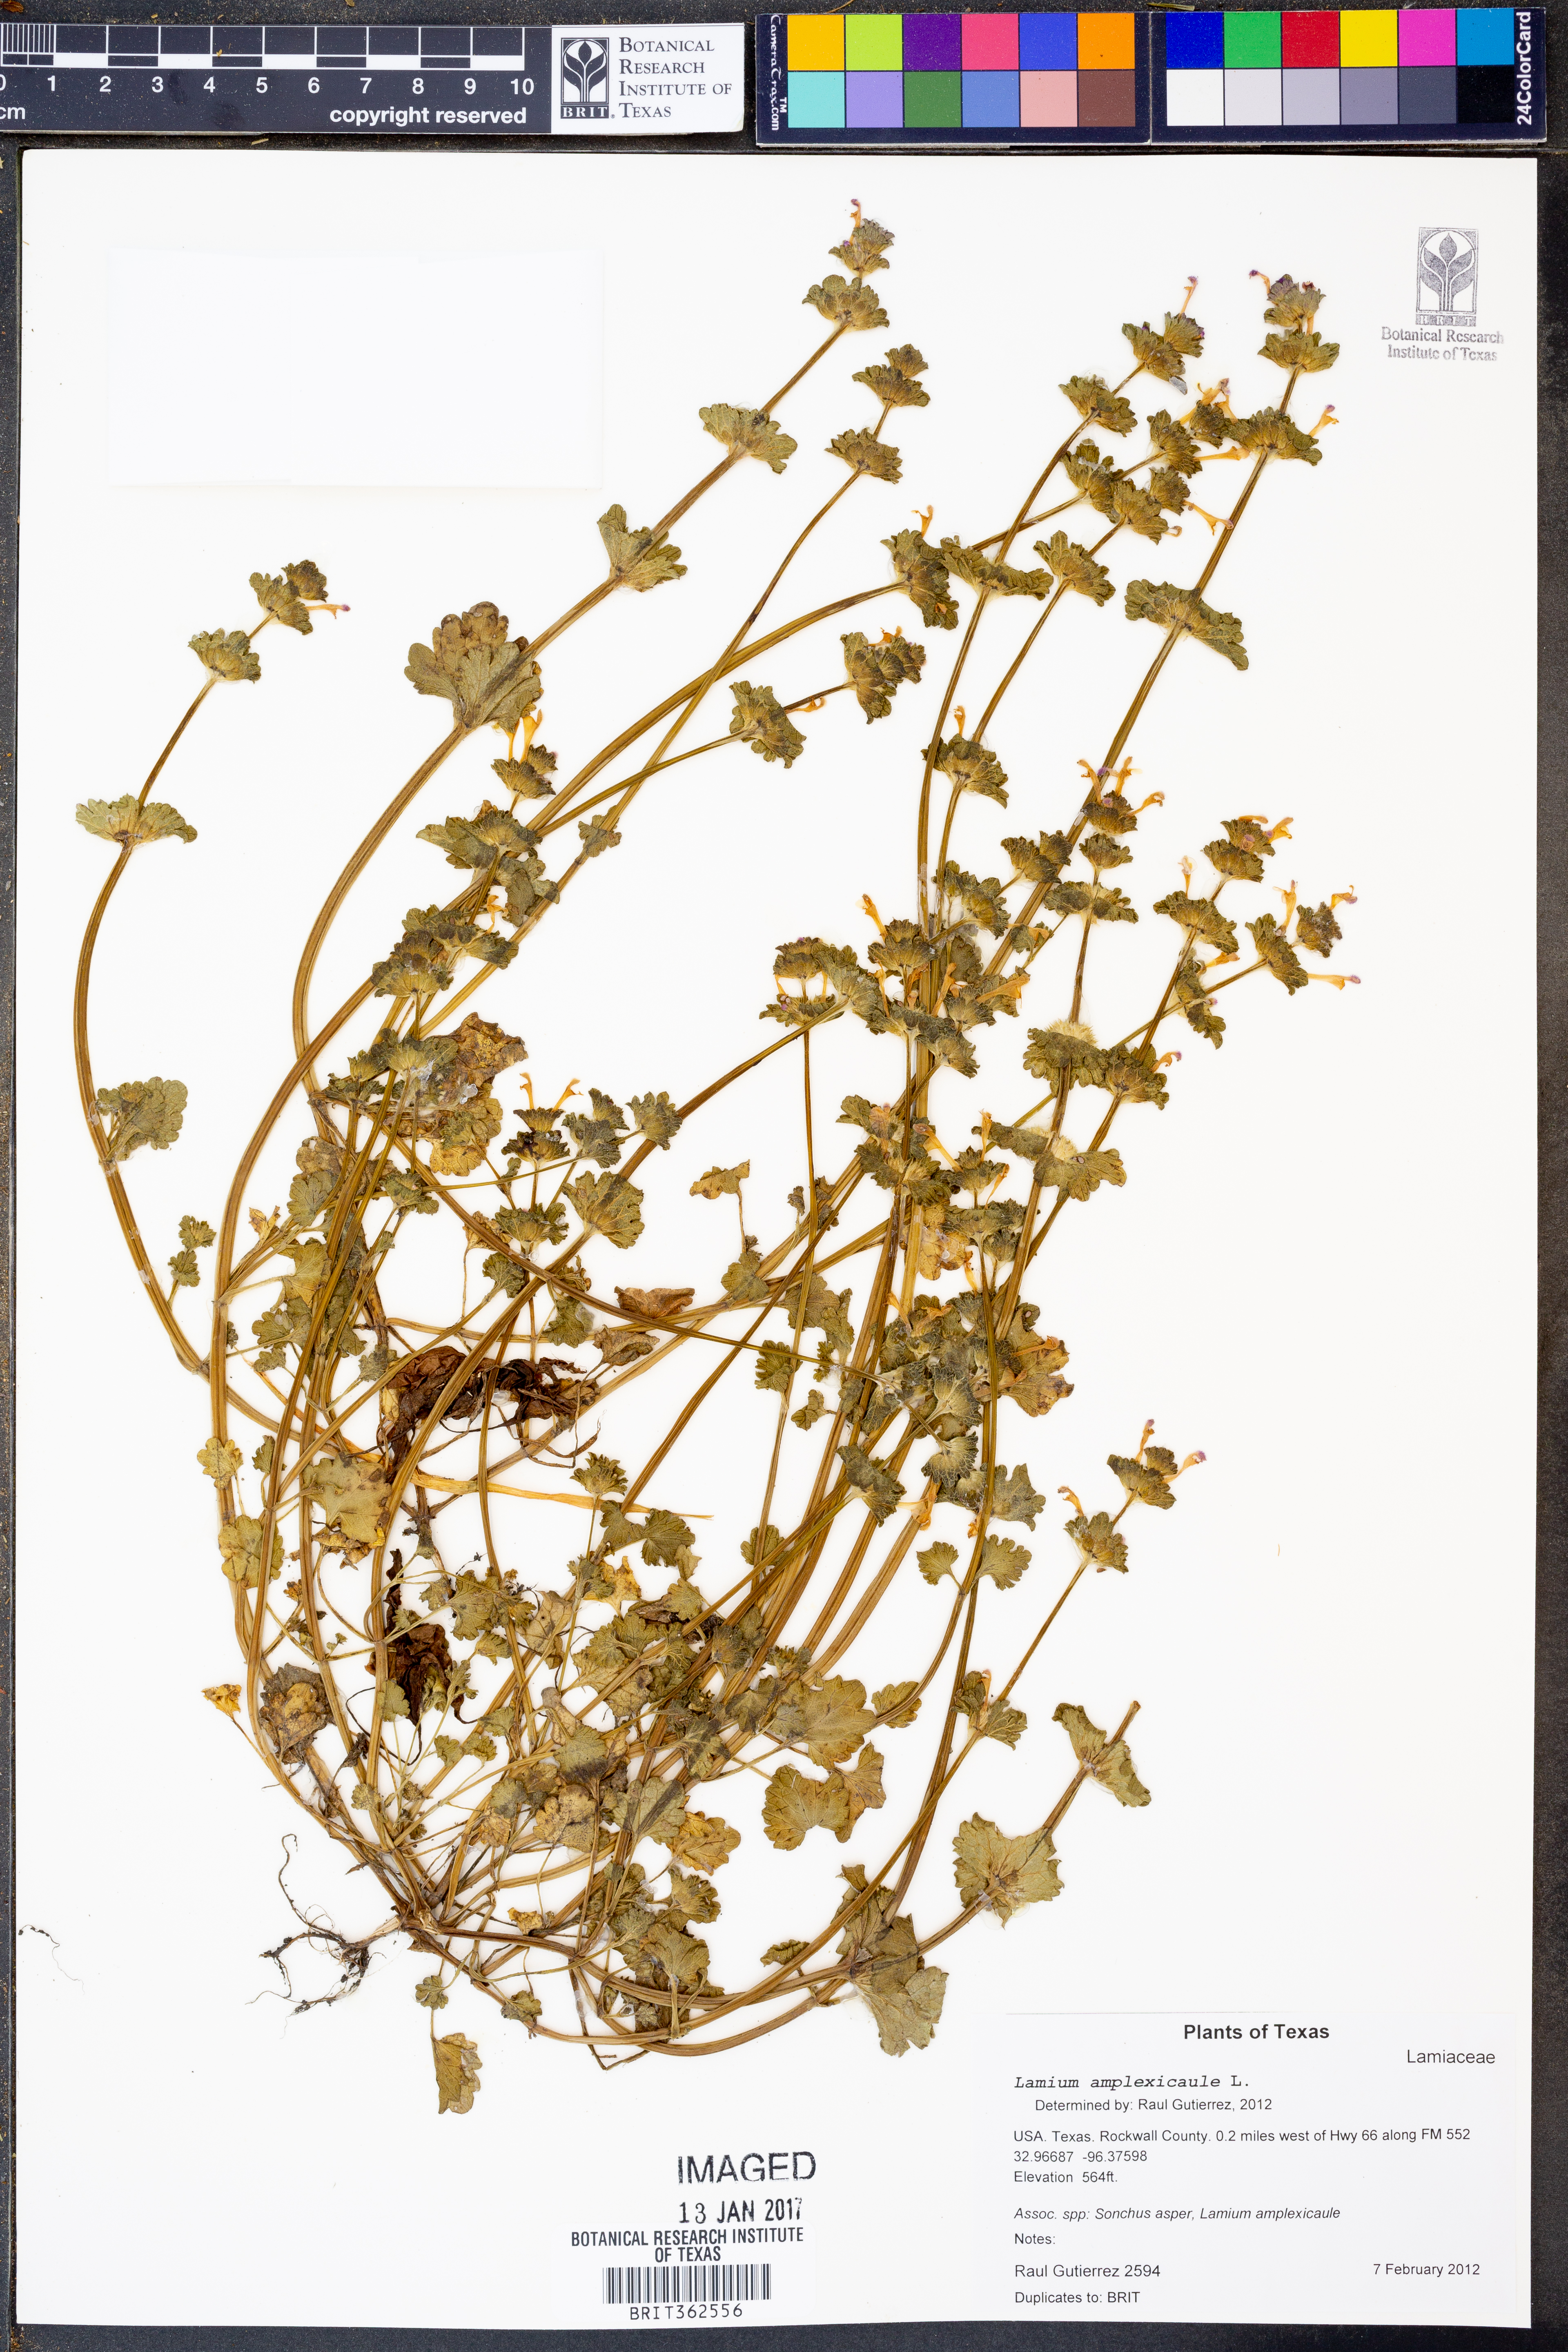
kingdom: Plantae
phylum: Tracheophyta
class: Magnoliopsida
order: Lamiales
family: Lamiaceae
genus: Lamium
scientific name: Lamium amplexicaule
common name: Henbit dead-nettle
